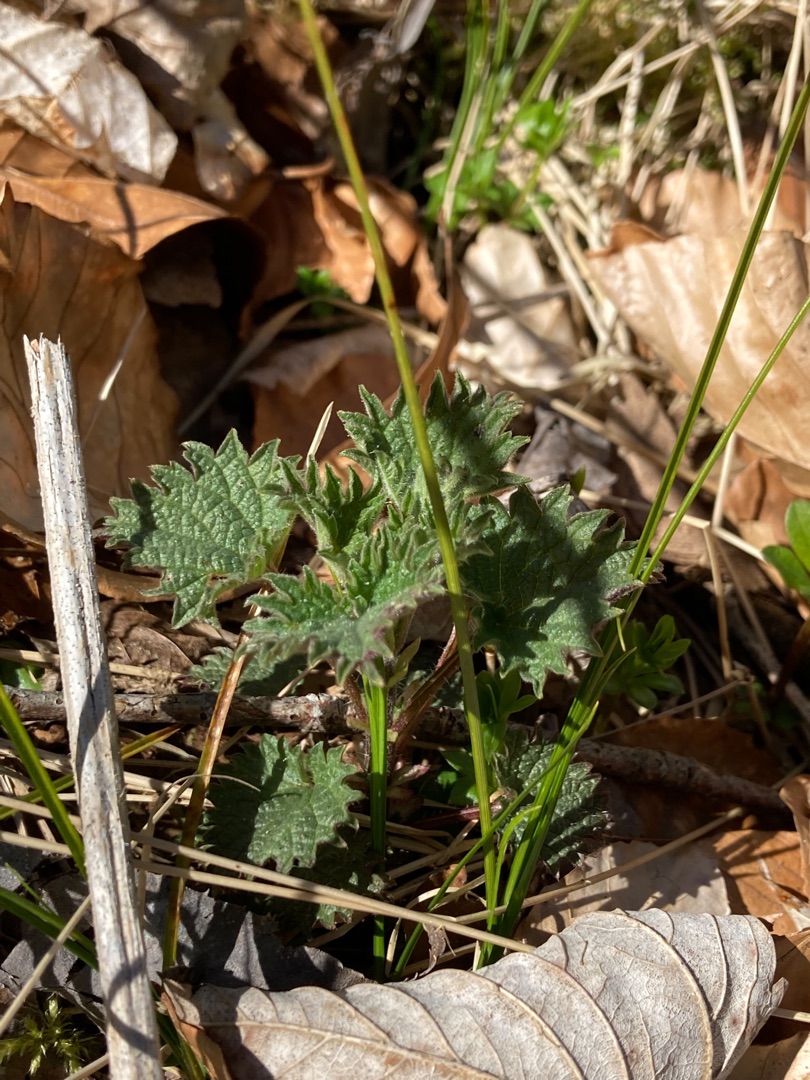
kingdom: Plantae
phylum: Tracheophyta
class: Magnoliopsida
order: Rosales
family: Urticaceae
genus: Urtica
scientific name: Urtica dioica
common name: Stor nælde
